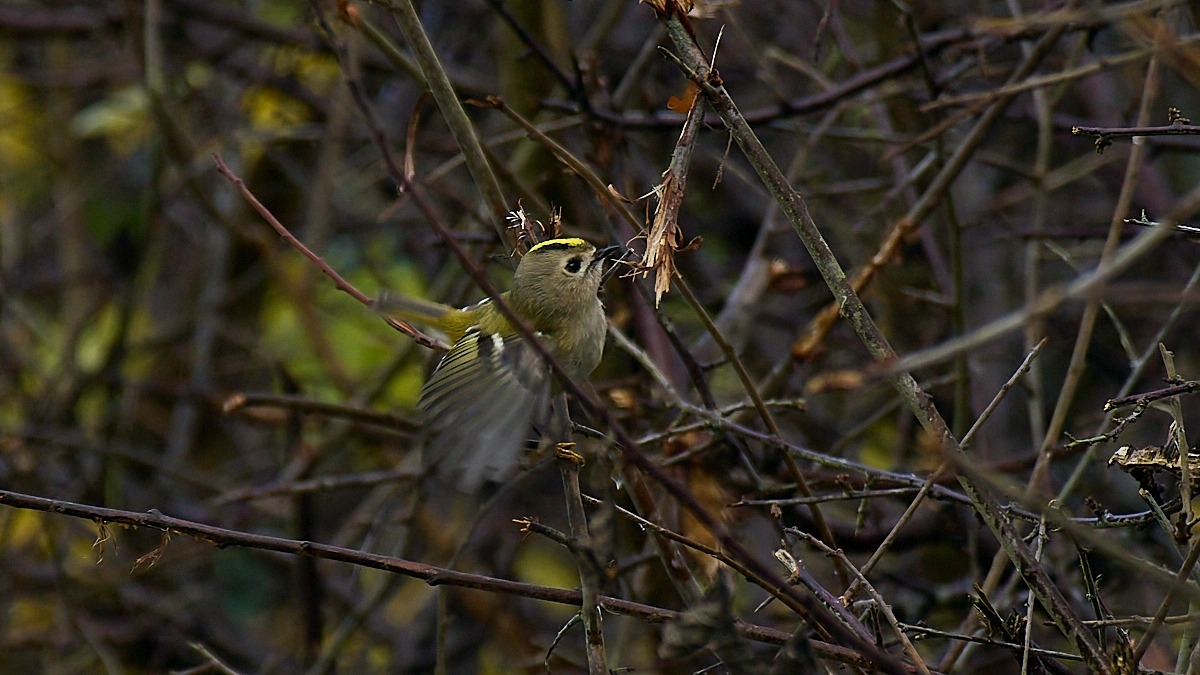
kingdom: Animalia
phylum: Chordata
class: Aves
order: Passeriformes
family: Regulidae
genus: Regulus
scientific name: Regulus regulus
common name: Fuglekonge
